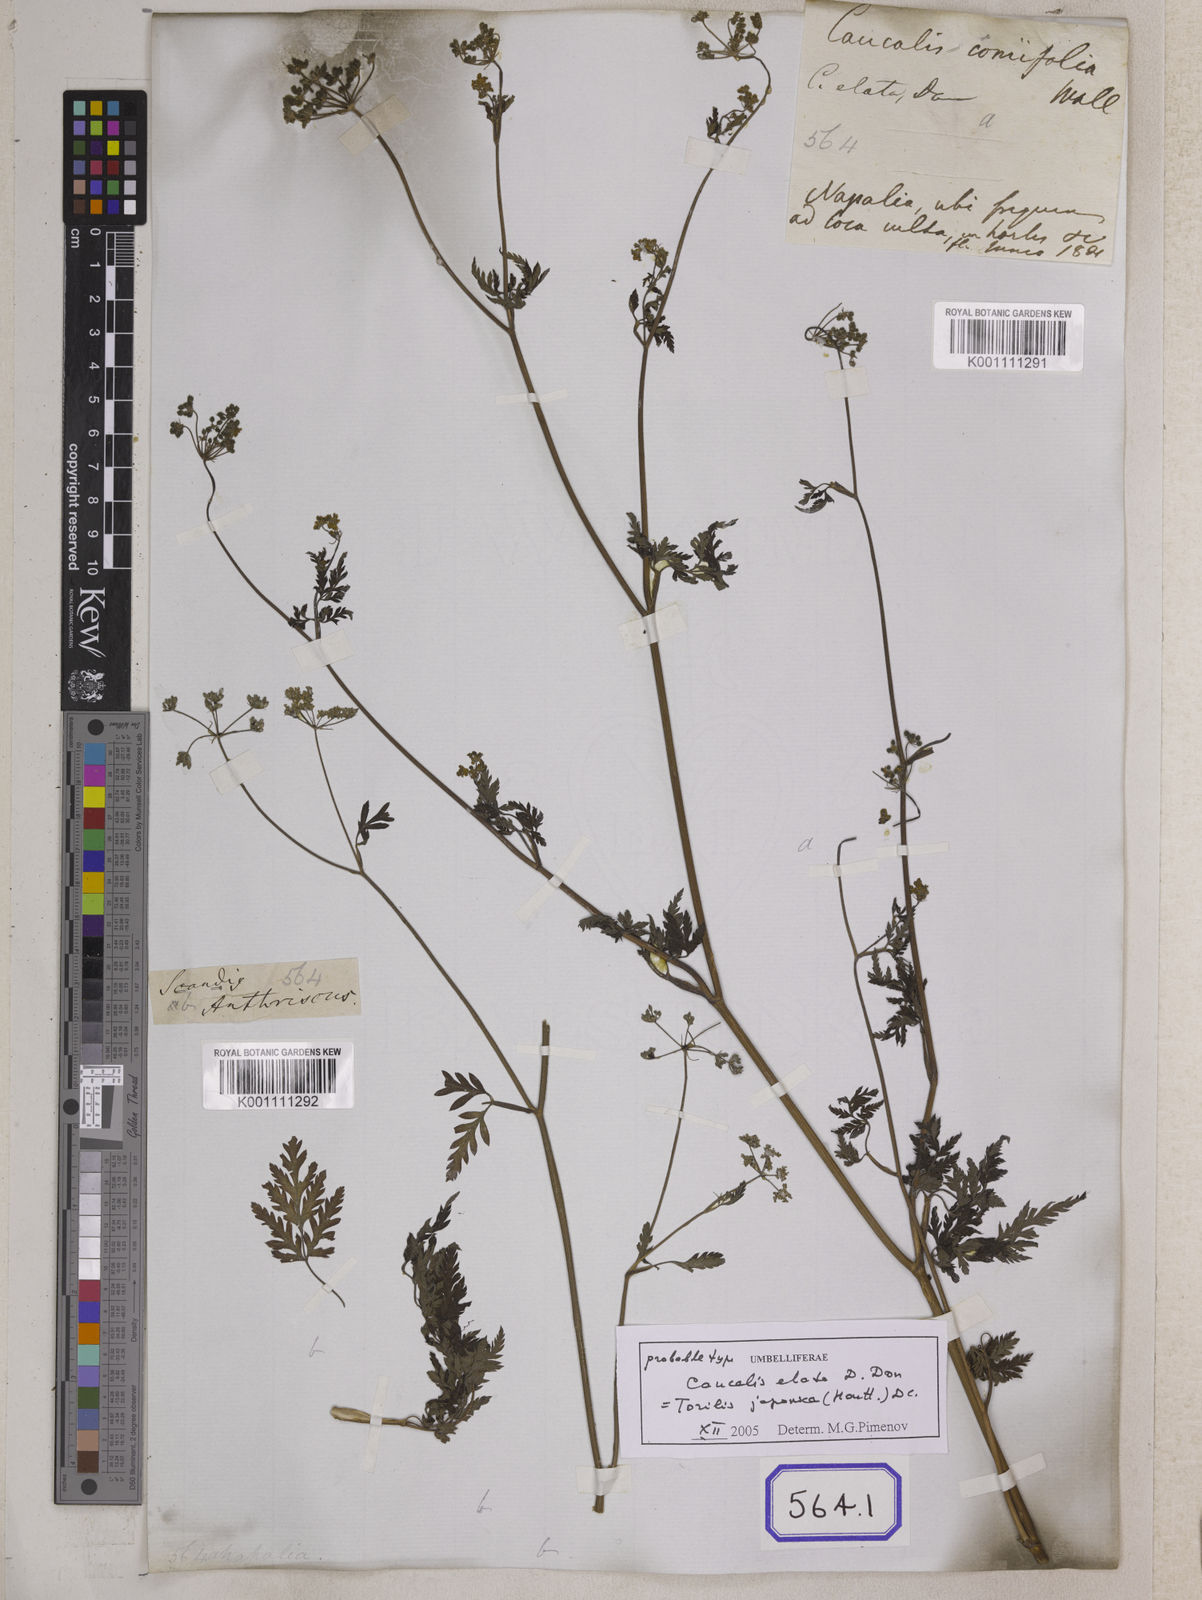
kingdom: Plantae
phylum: Tracheophyta
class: Magnoliopsida
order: Apiales
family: Apiaceae
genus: Torilis
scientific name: Torilis japonica
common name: Upright hedge-parsley
